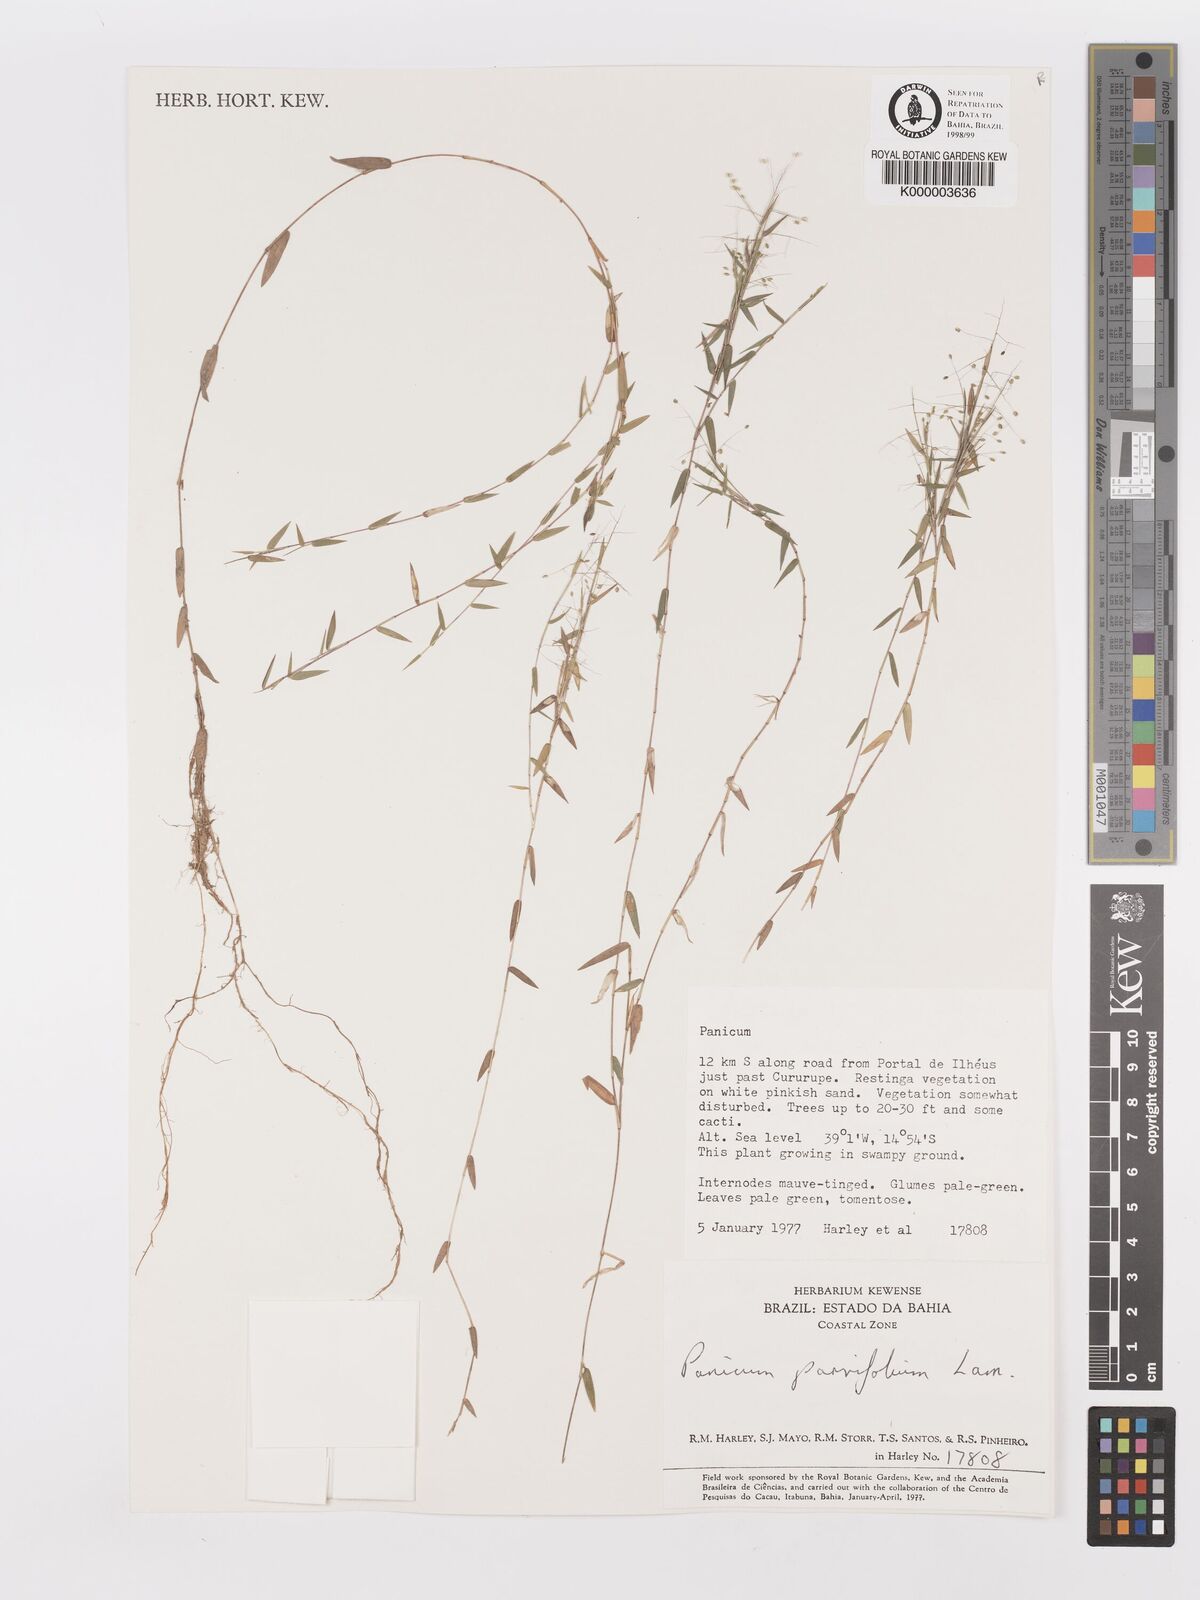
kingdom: Plantae
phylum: Tracheophyta
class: Liliopsida
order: Poales
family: Poaceae
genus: Trichanthecium
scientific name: Trichanthecium parvifolium
